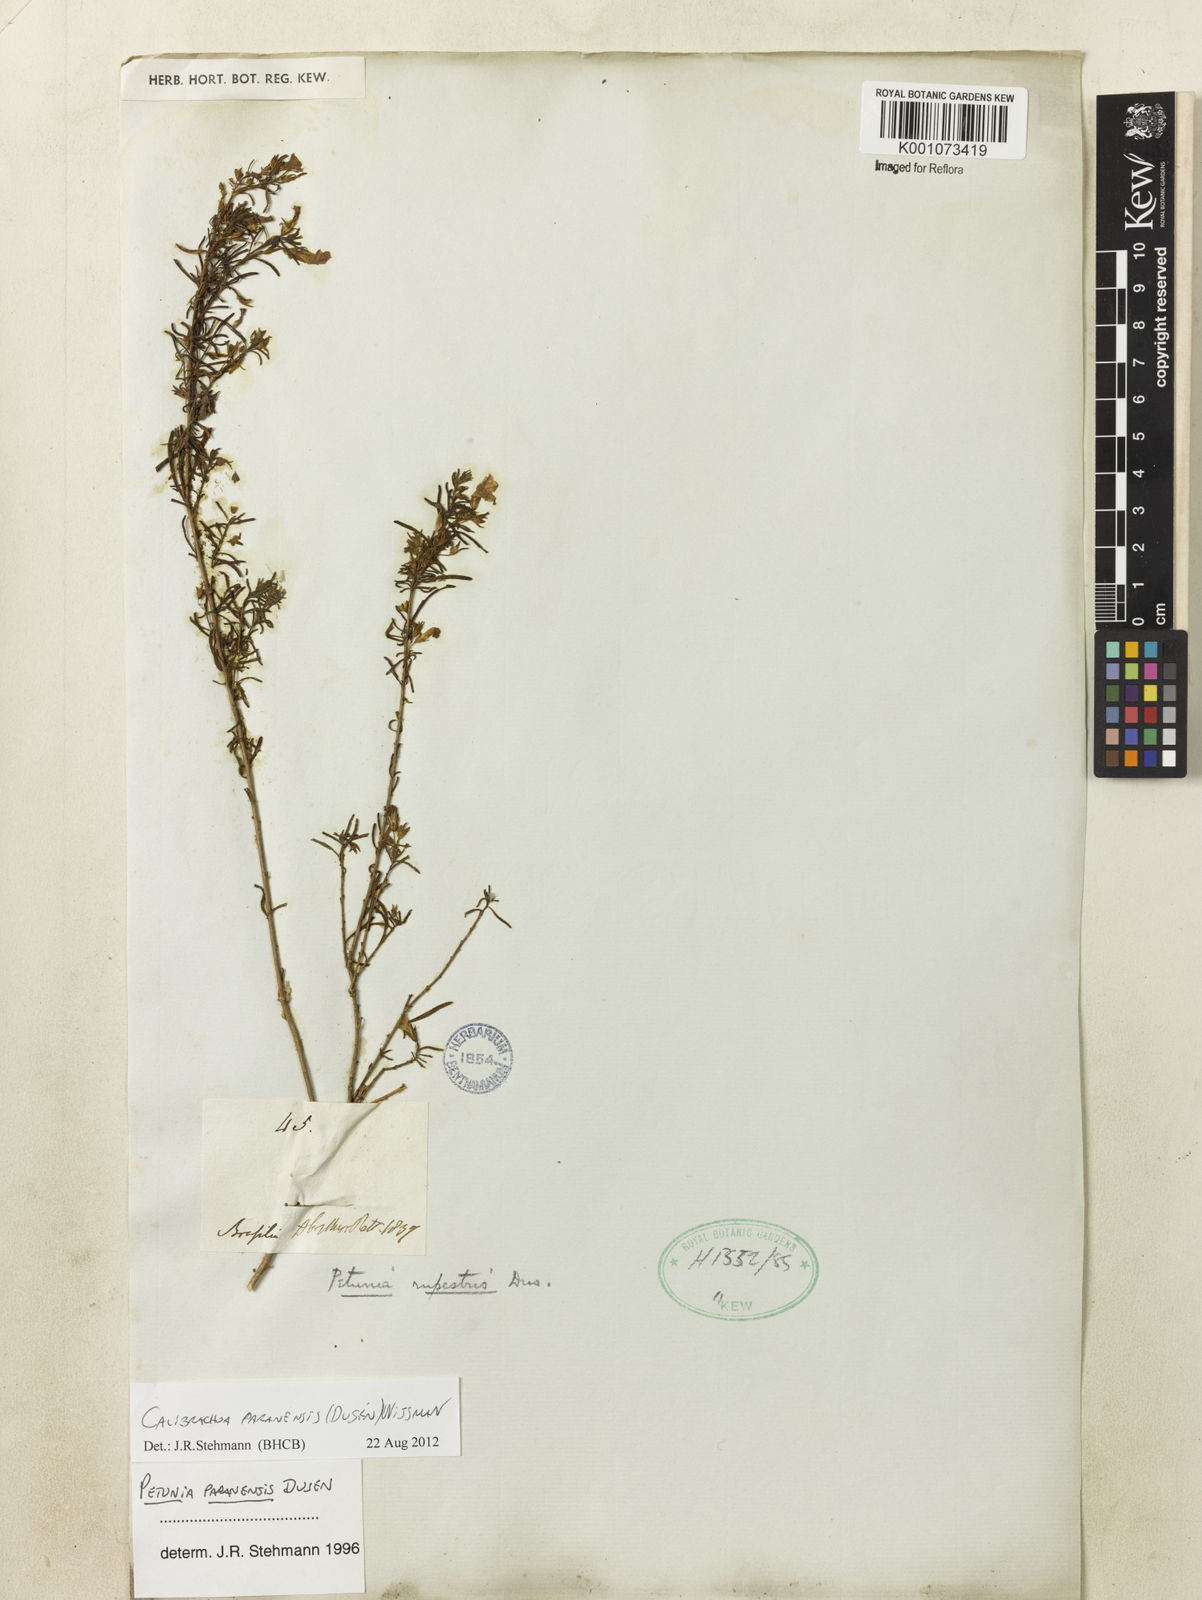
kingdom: Plantae
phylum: Tracheophyta
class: Magnoliopsida
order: Solanales
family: Solanaceae
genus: Calibrachoa
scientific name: Calibrachoa
